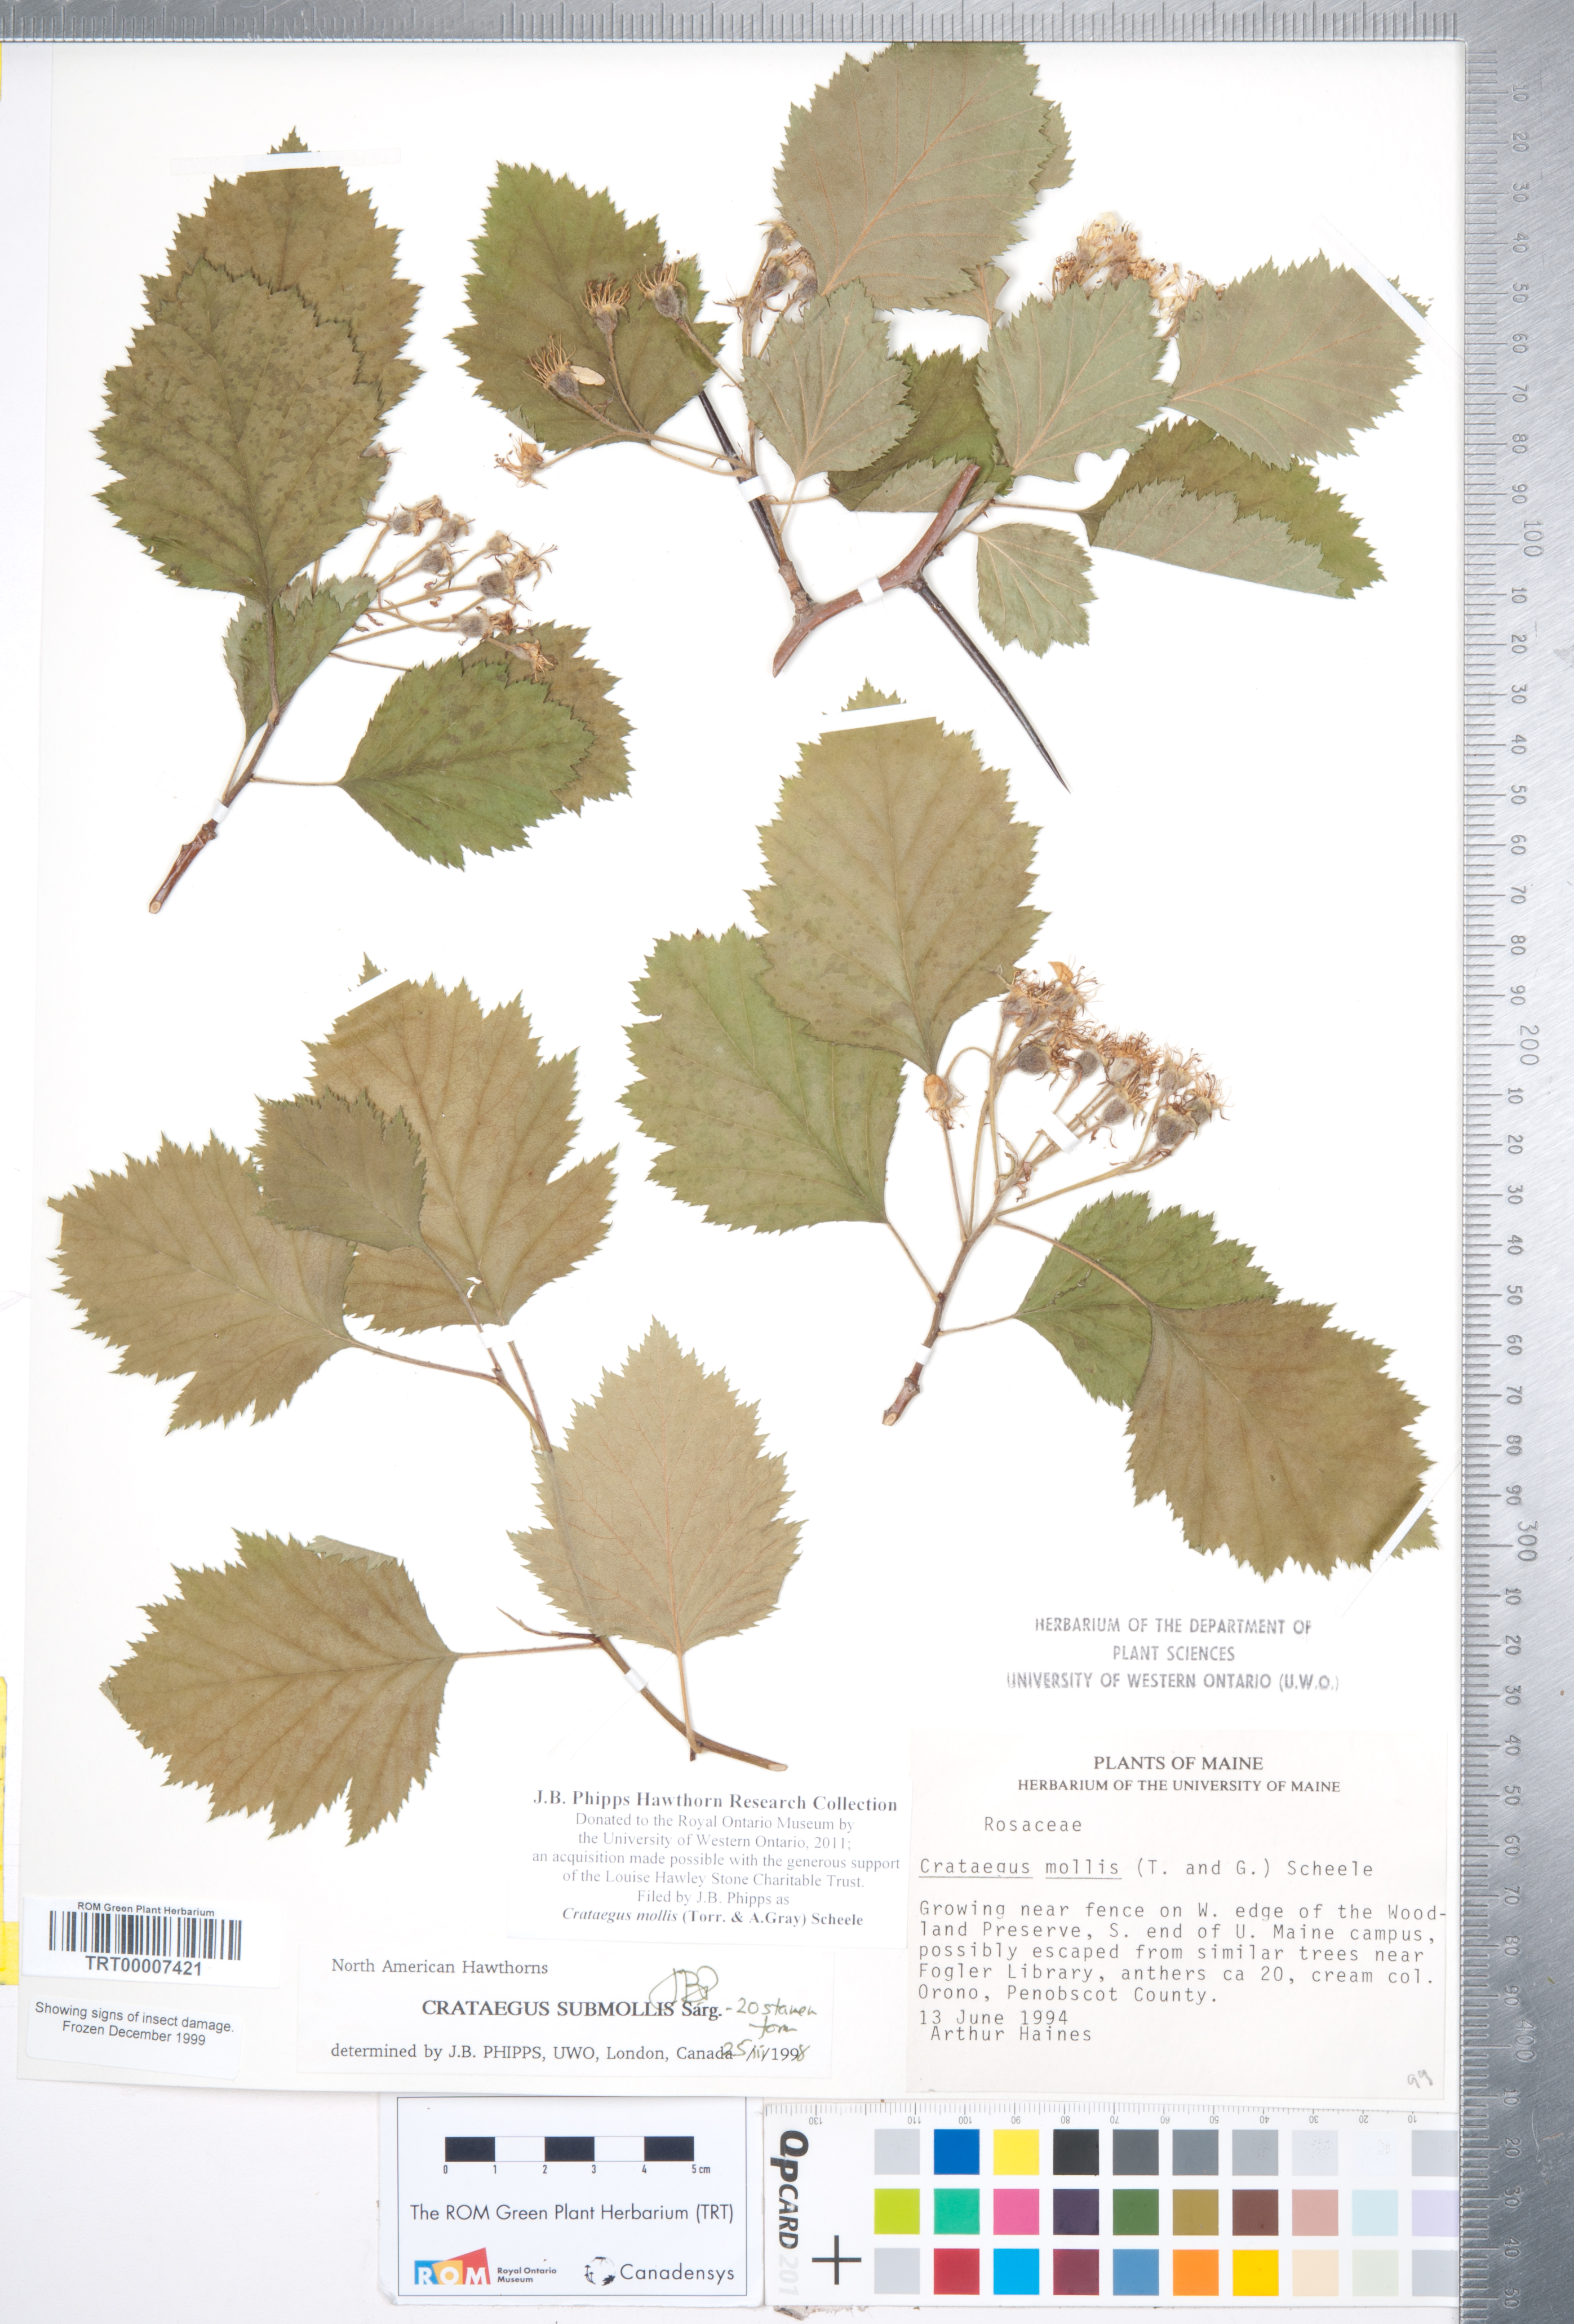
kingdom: Plantae
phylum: Tracheophyta
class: Magnoliopsida
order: Rosales
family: Rosaceae
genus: Crataegus
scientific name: Crataegus mollis
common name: Downy hawthorn
